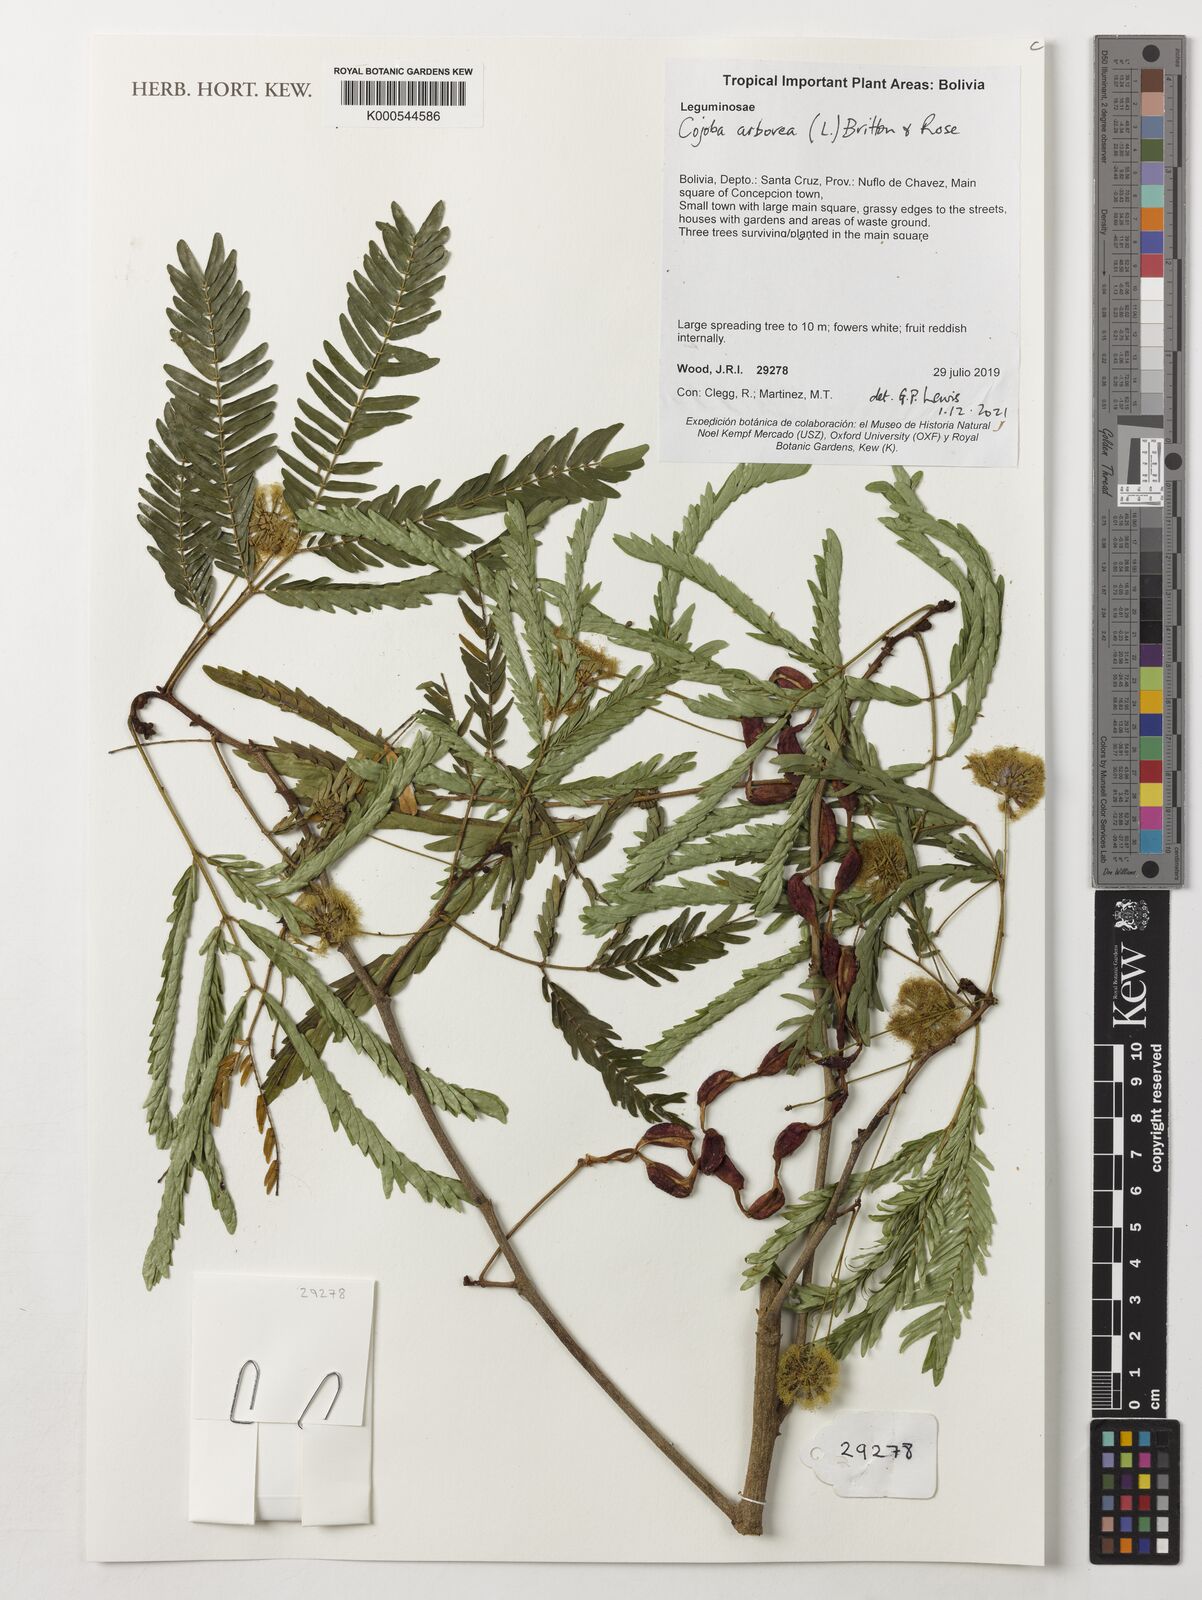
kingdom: Plantae
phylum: Tracheophyta
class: Magnoliopsida
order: Fabales
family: Fabaceae
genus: Cojoba
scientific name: Cojoba arborea
